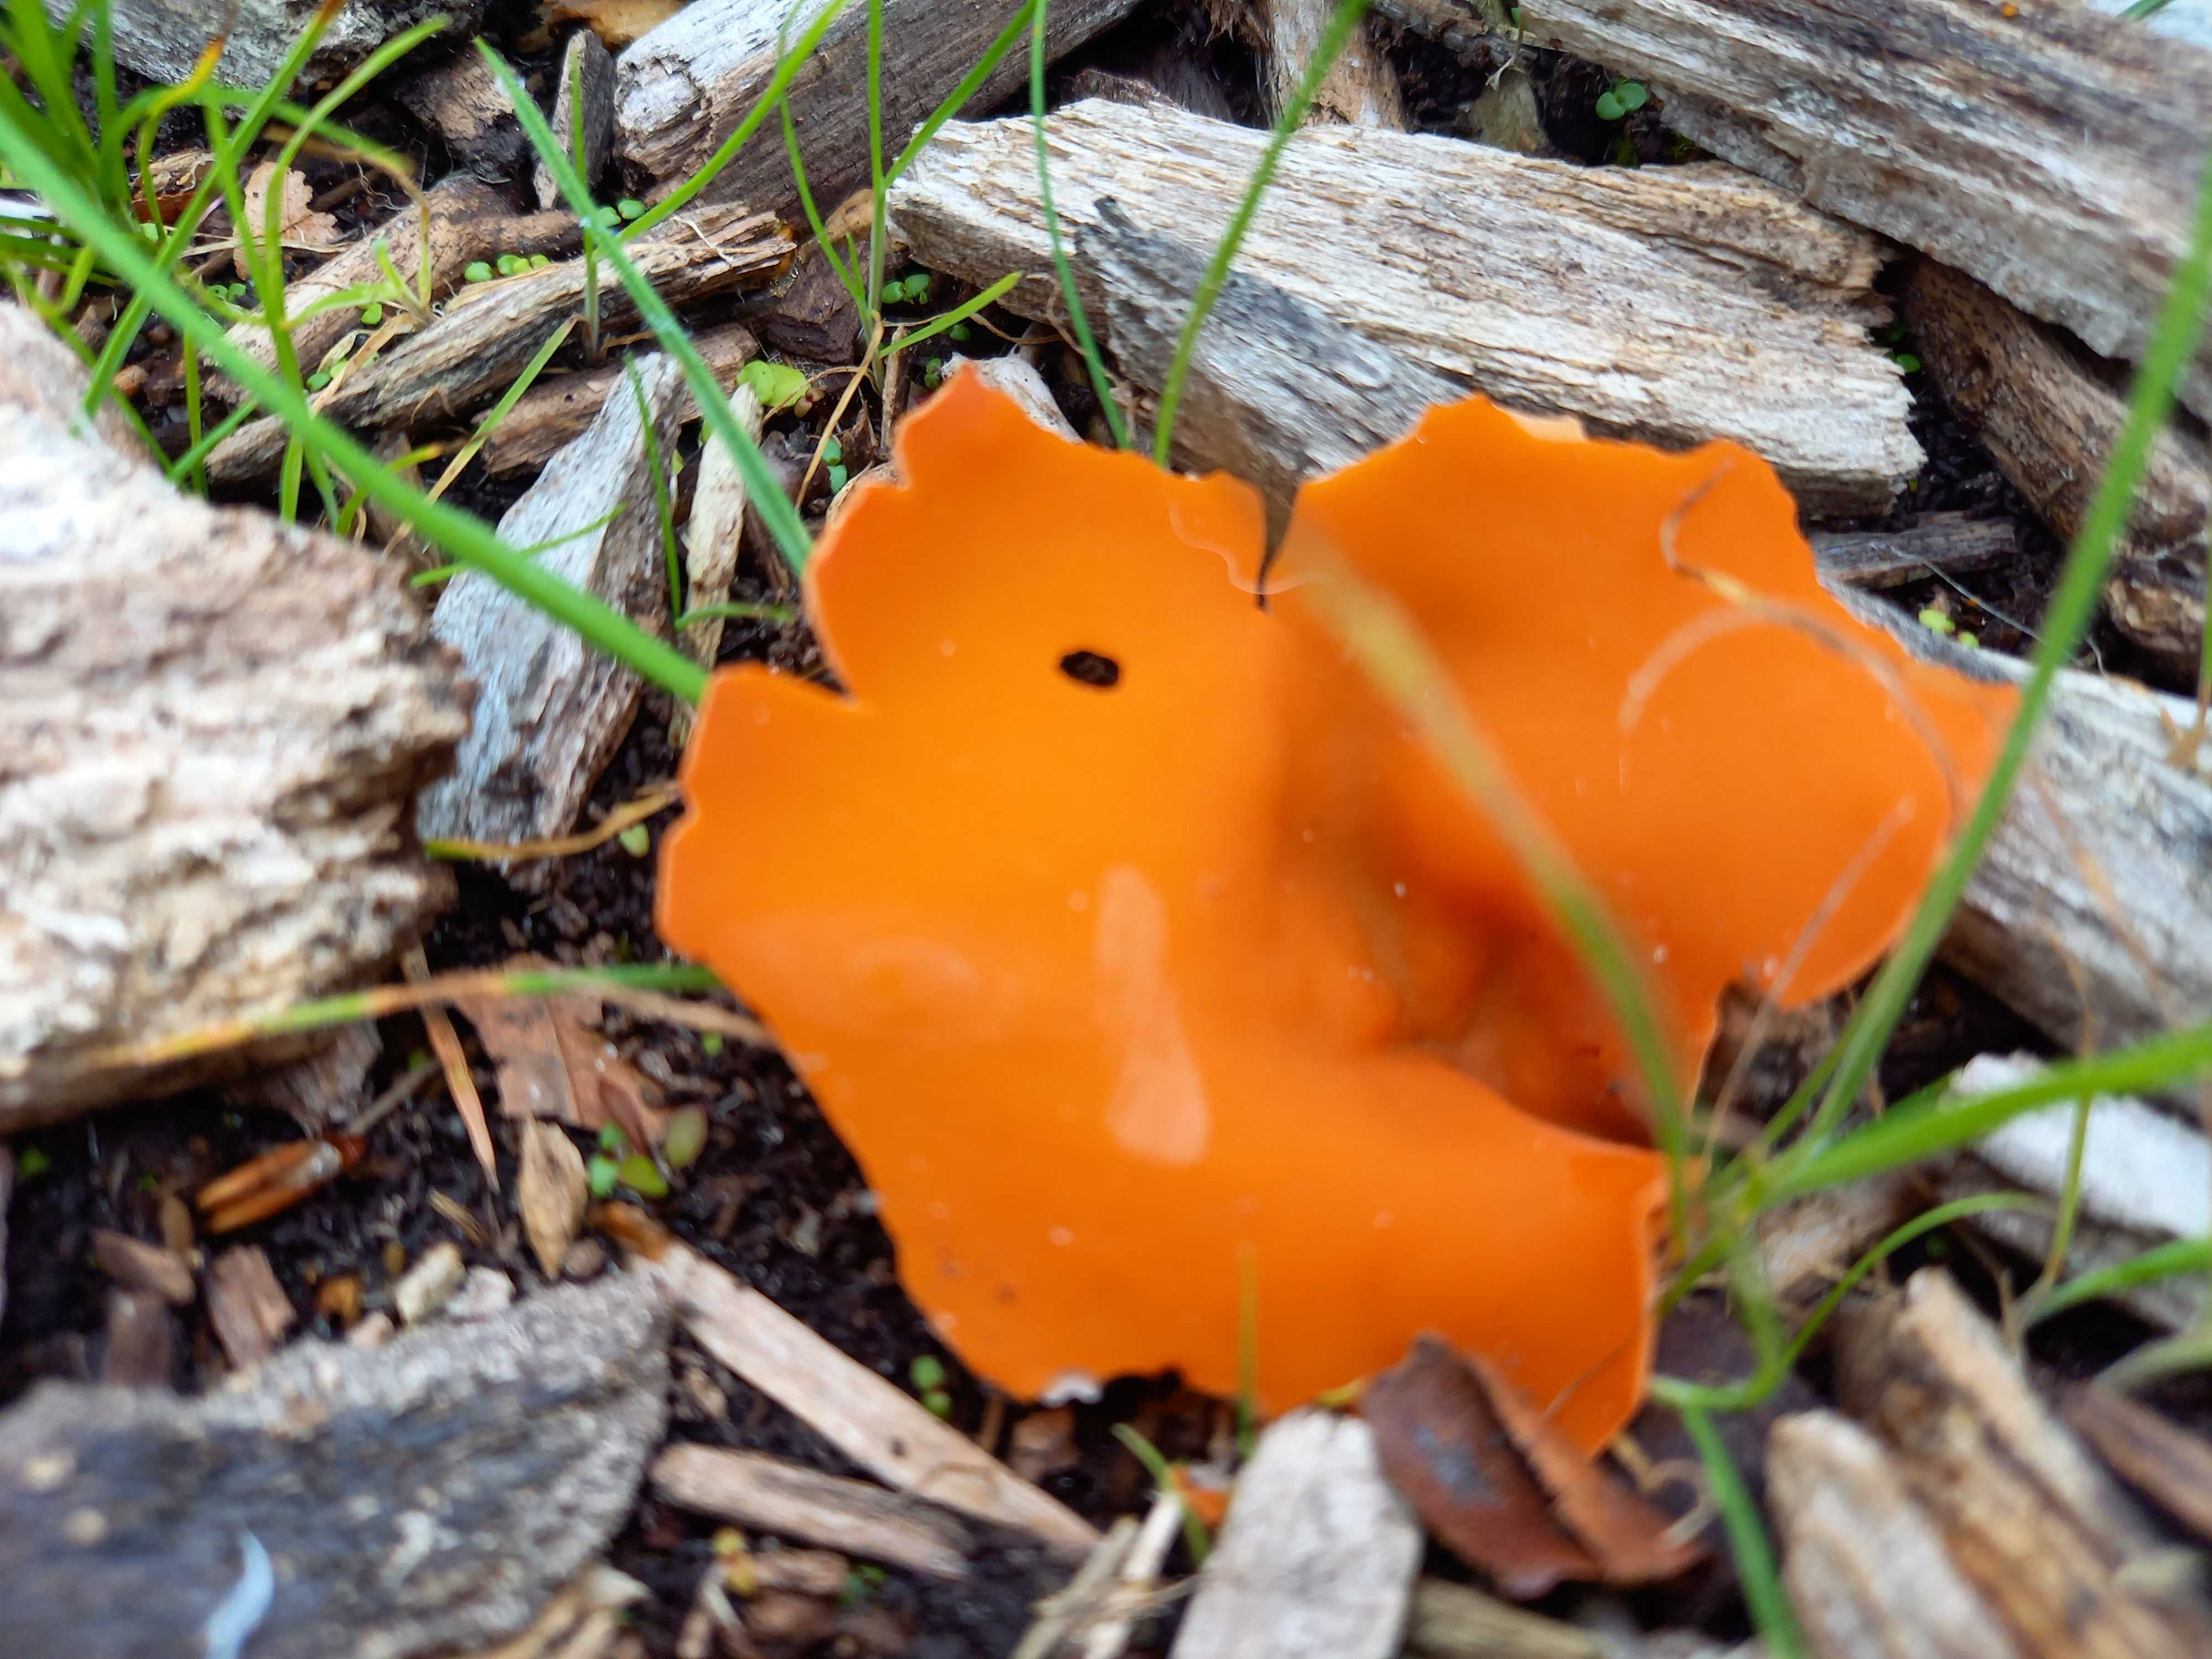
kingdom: Fungi
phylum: Ascomycota
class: Pezizomycetes
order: Pezizales
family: Pyronemataceae
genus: Aleuria
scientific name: Aleuria aurantia
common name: almindelig orangebæger
